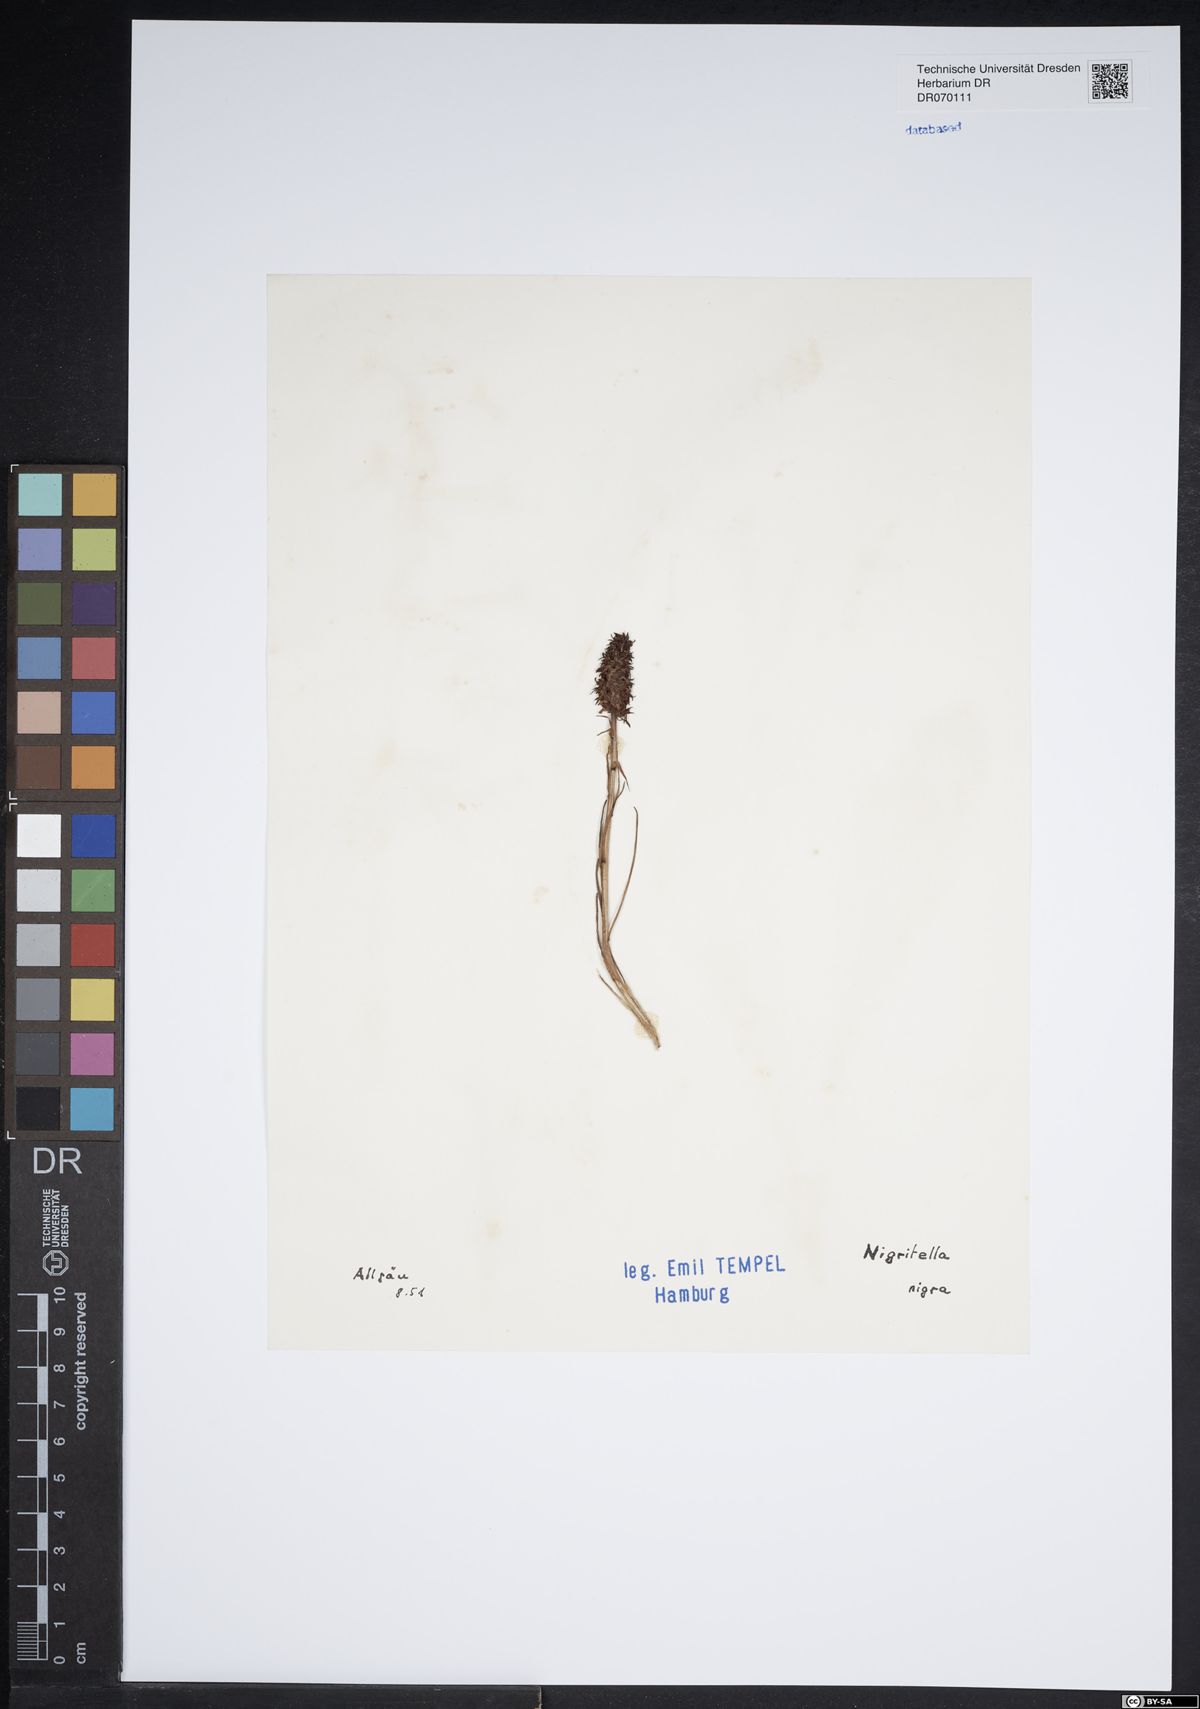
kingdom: Plantae
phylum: Tracheophyta
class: Liliopsida
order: Asparagales
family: Orchidaceae
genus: Gymnadenia
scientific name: Gymnadenia nigra
